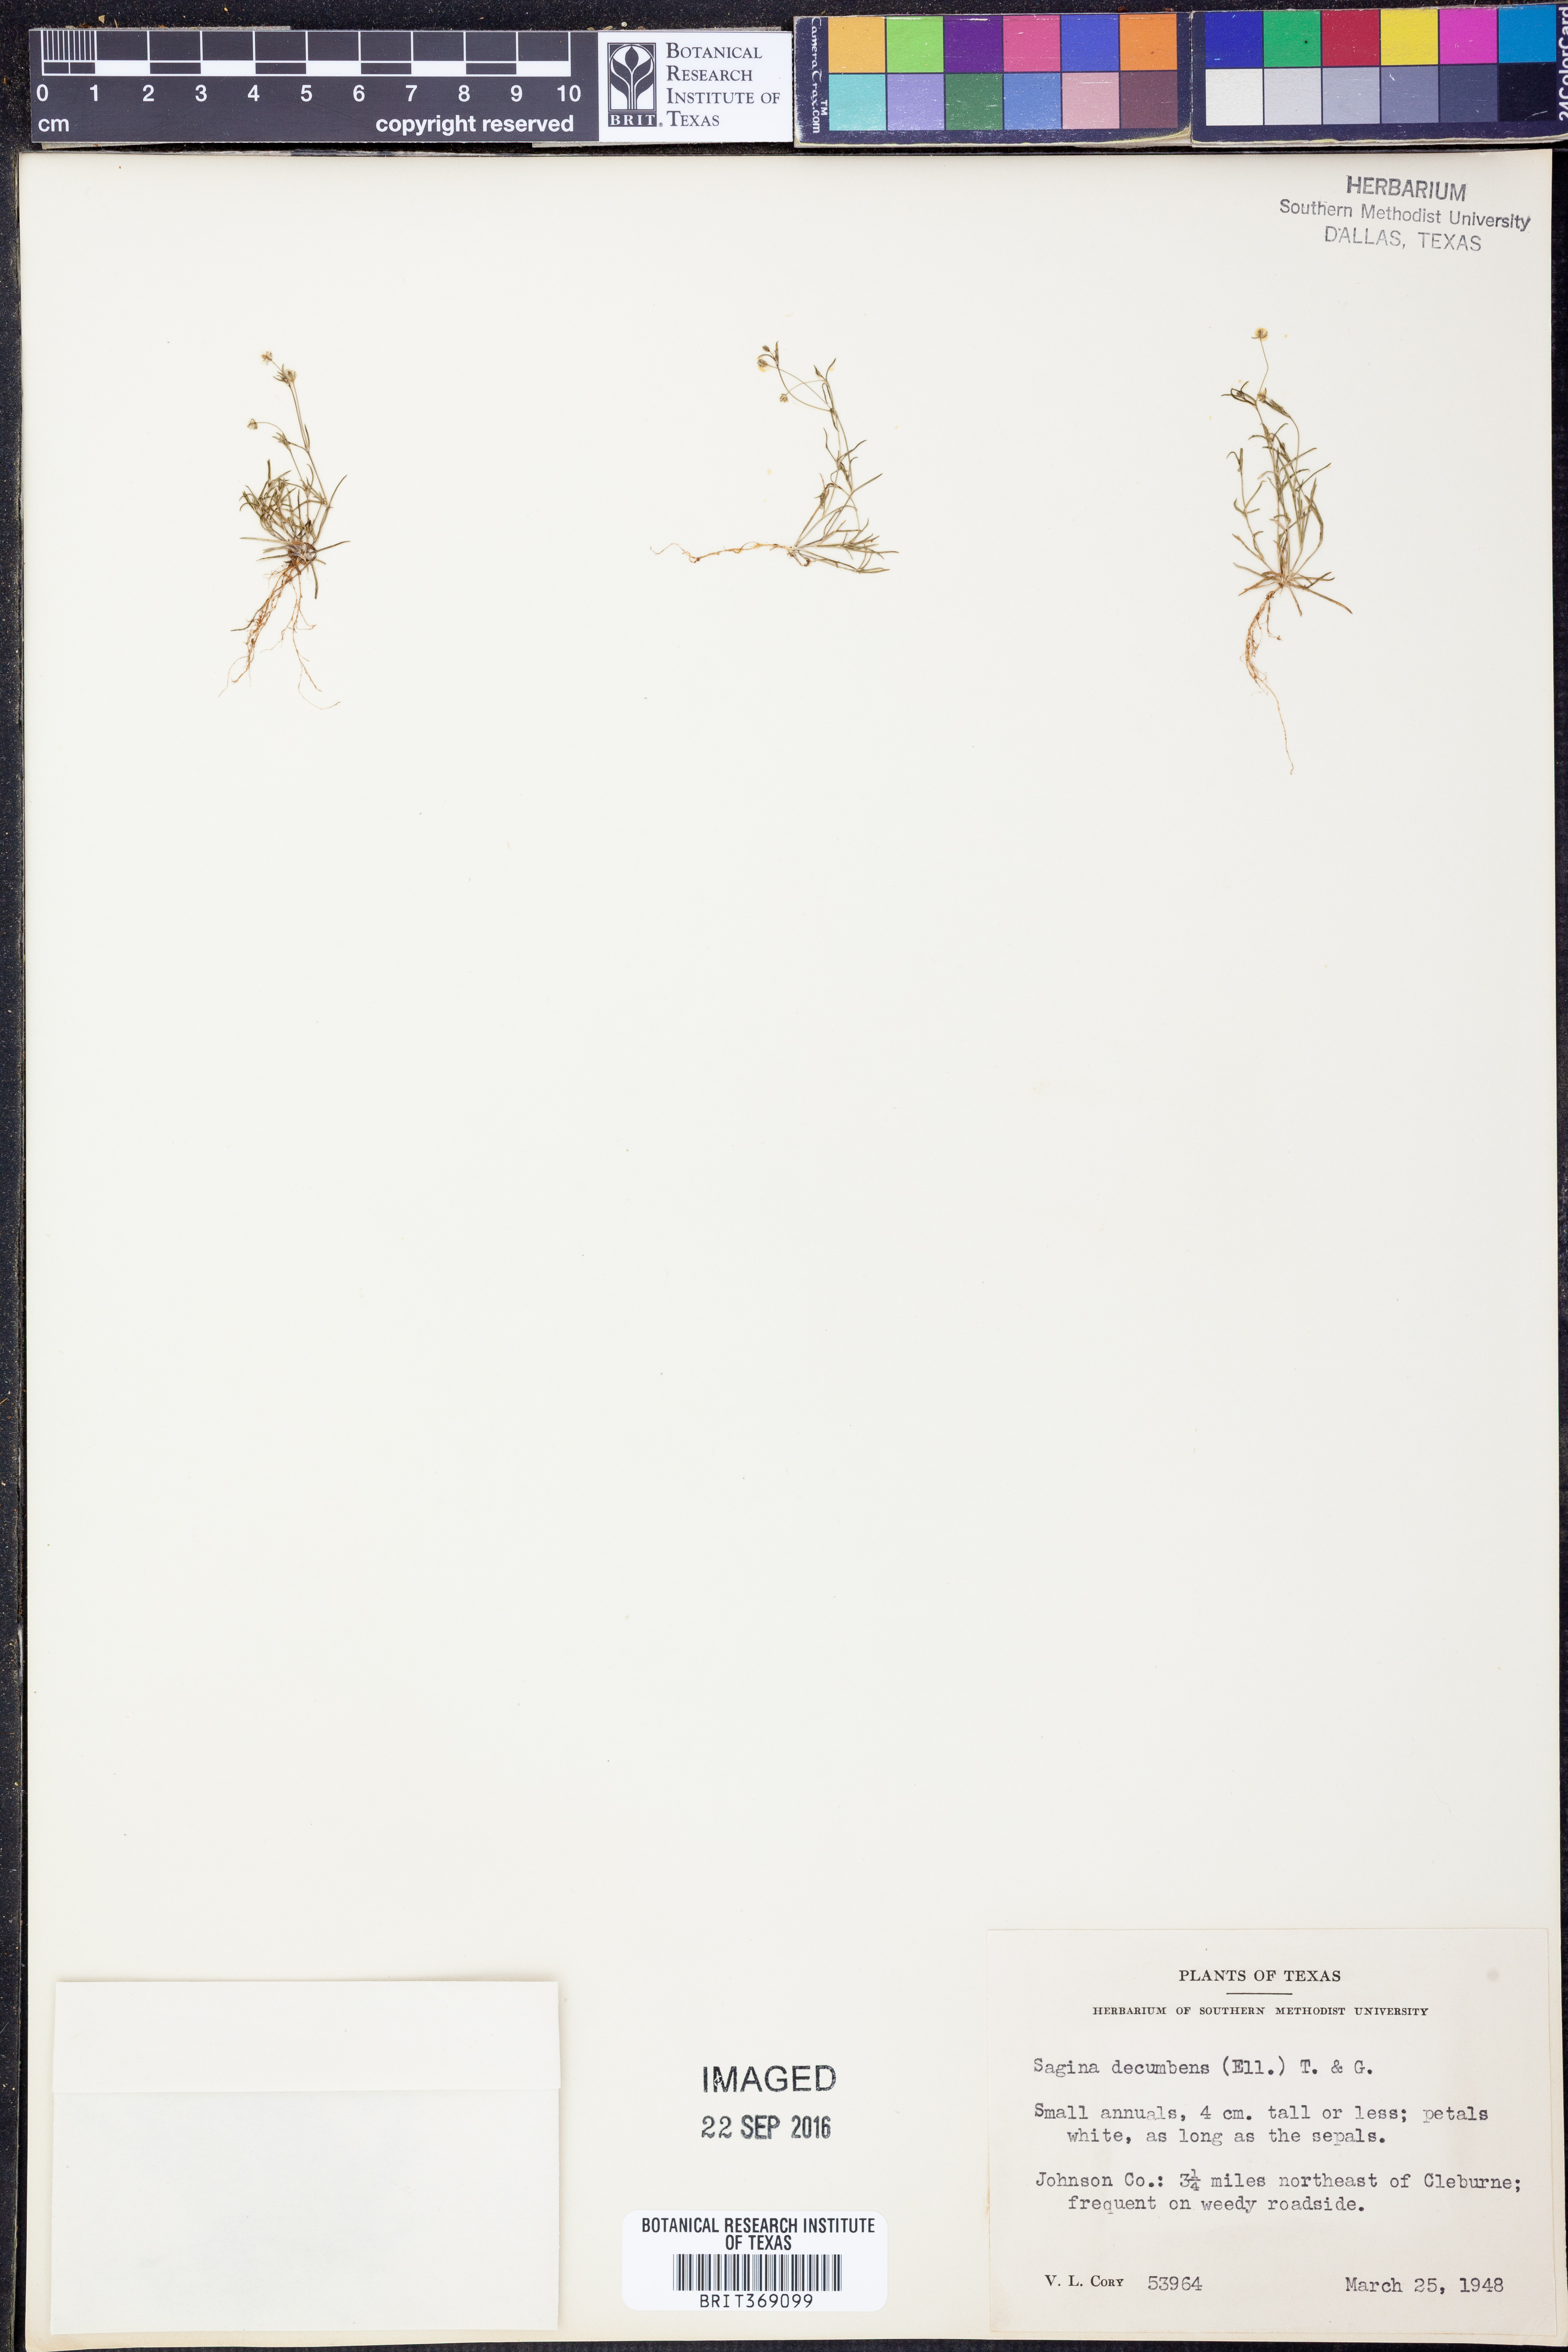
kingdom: Plantae
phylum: Tracheophyta
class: Magnoliopsida
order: Caryophyllales
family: Caryophyllaceae
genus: Sagina
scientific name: Sagina decumbens
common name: Decumbent pearlwort
